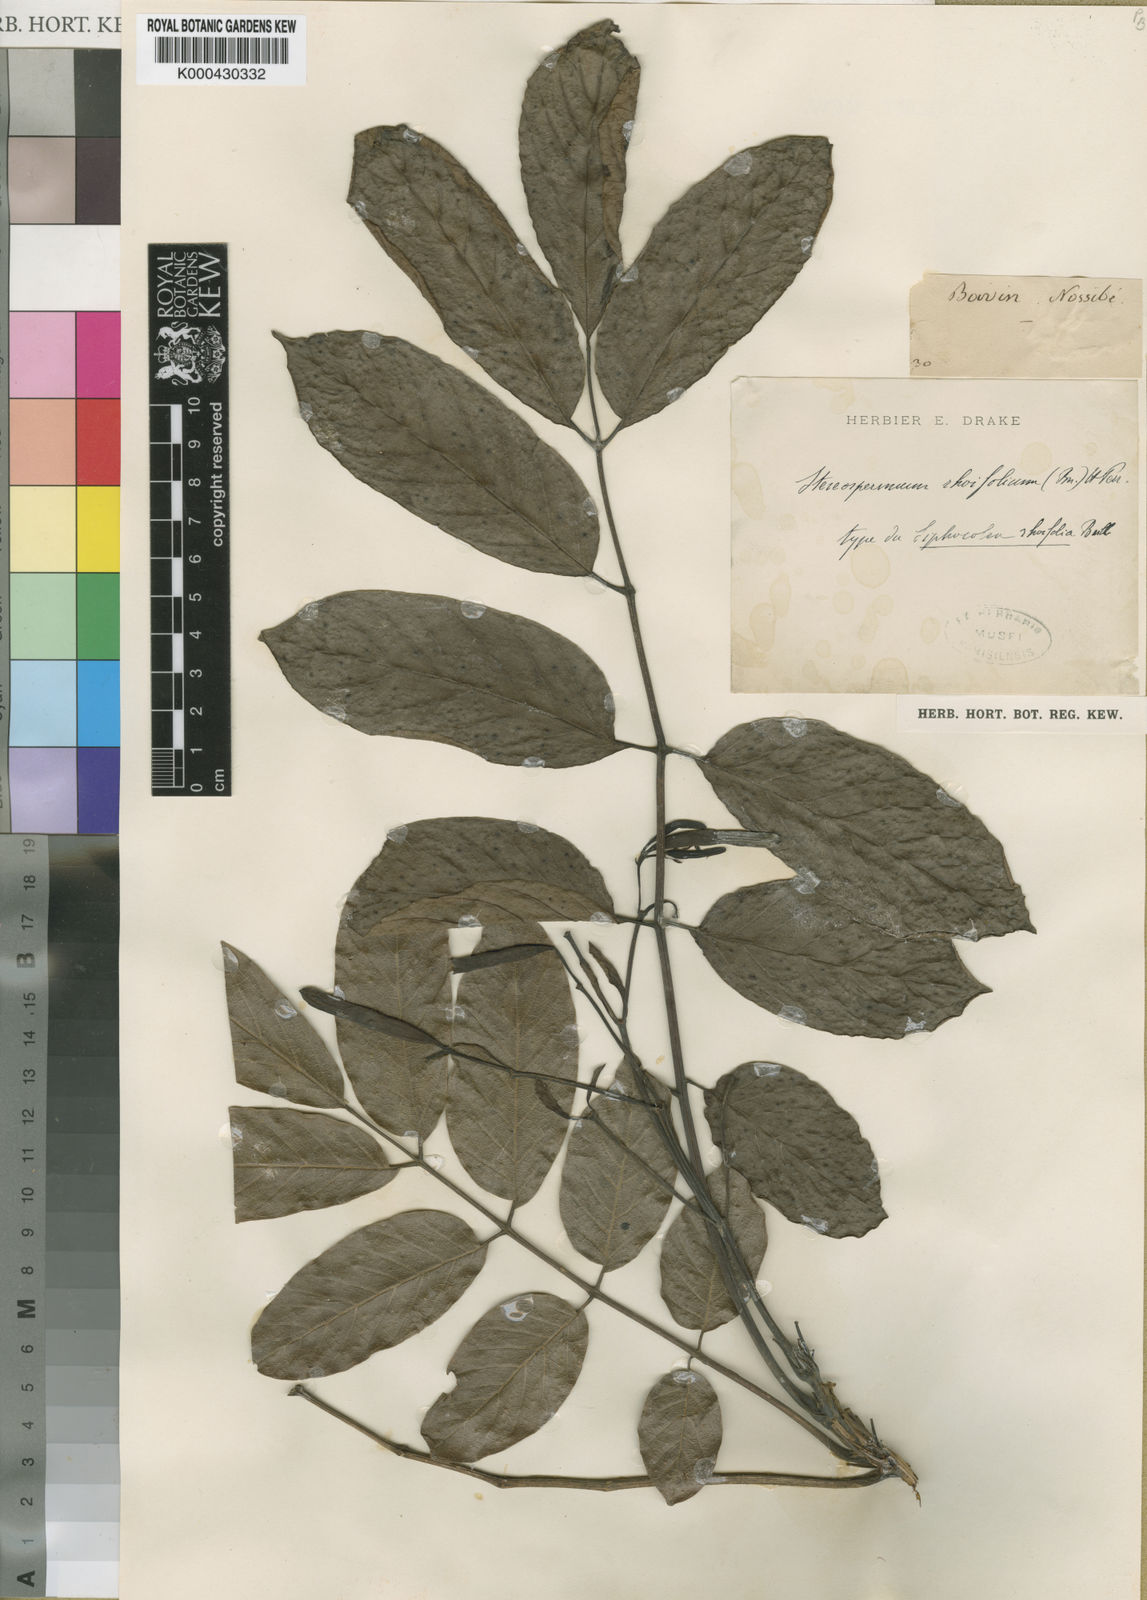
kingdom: Plantae
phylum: Tracheophyta
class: Magnoliopsida
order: Lamiales
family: Bignoniaceae
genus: Stereospermum
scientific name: Stereospermum rhoifolium
